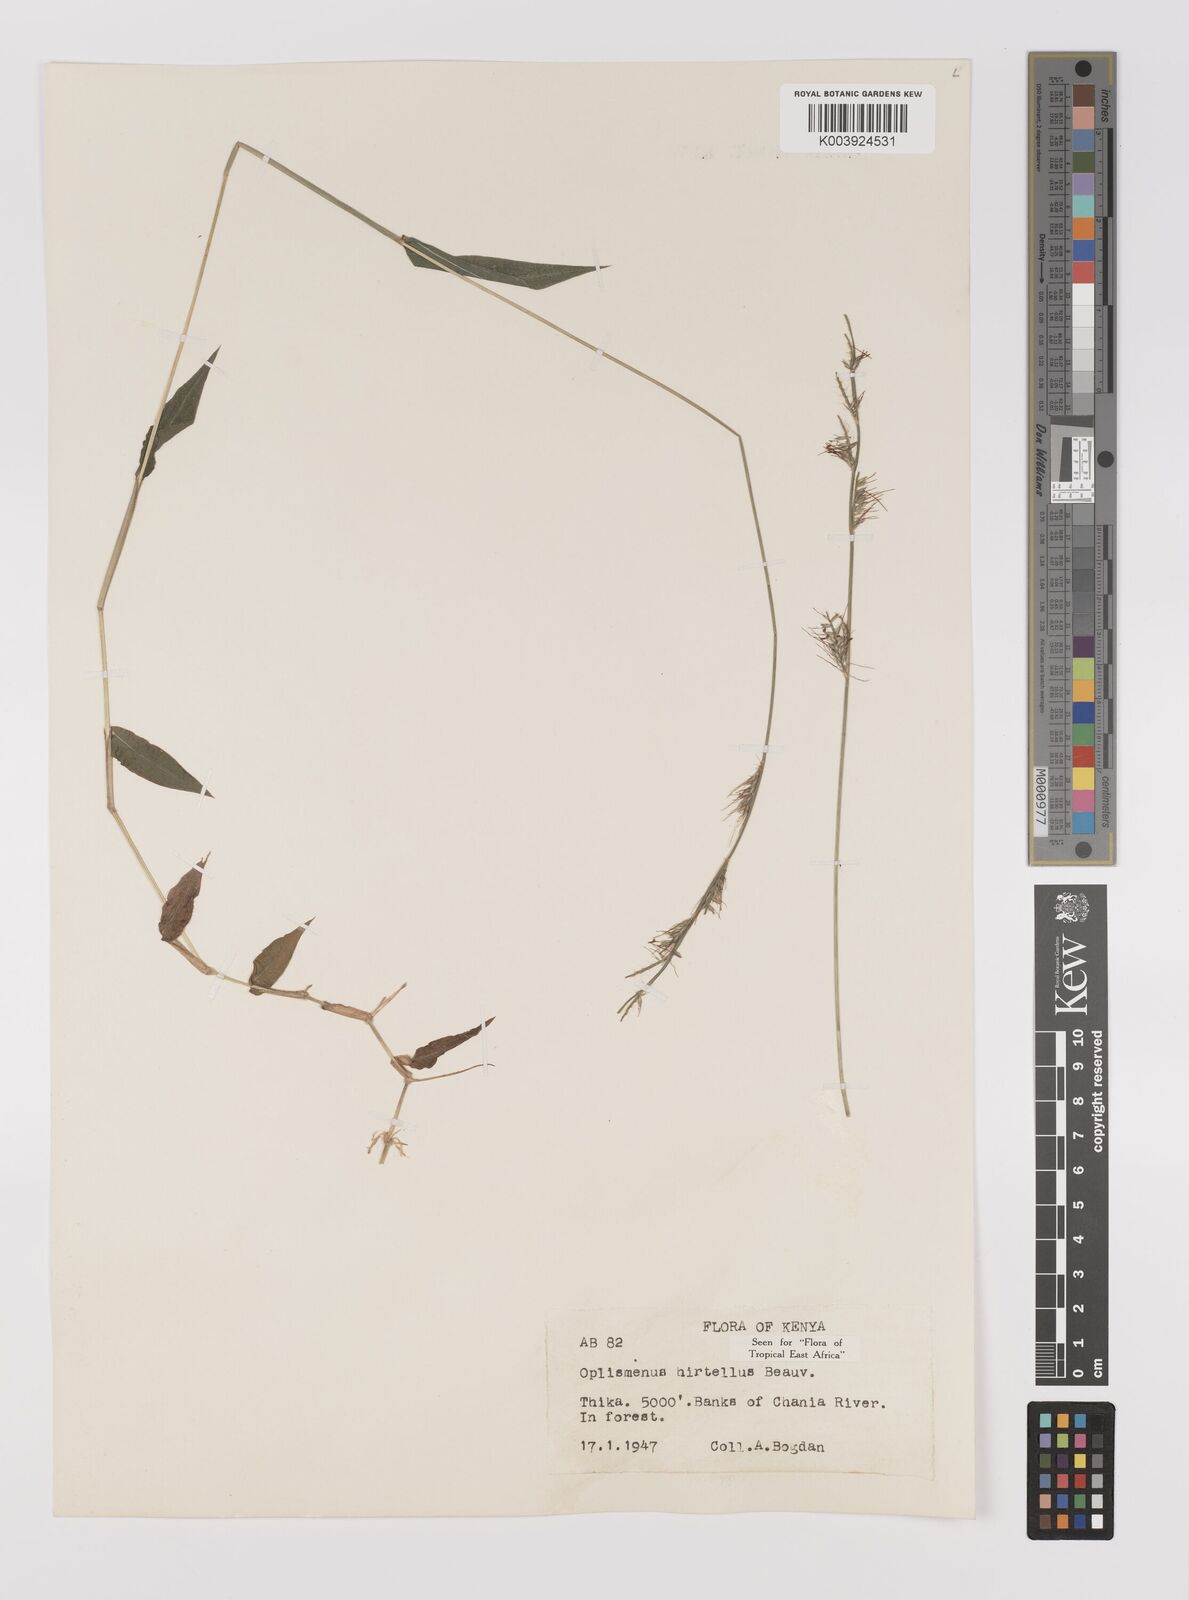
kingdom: Plantae
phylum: Tracheophyta
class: Liliopsida
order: Poales
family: Poaceae
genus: Oplismenus
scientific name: Oplismenus hirtellus
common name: Basketgrass
